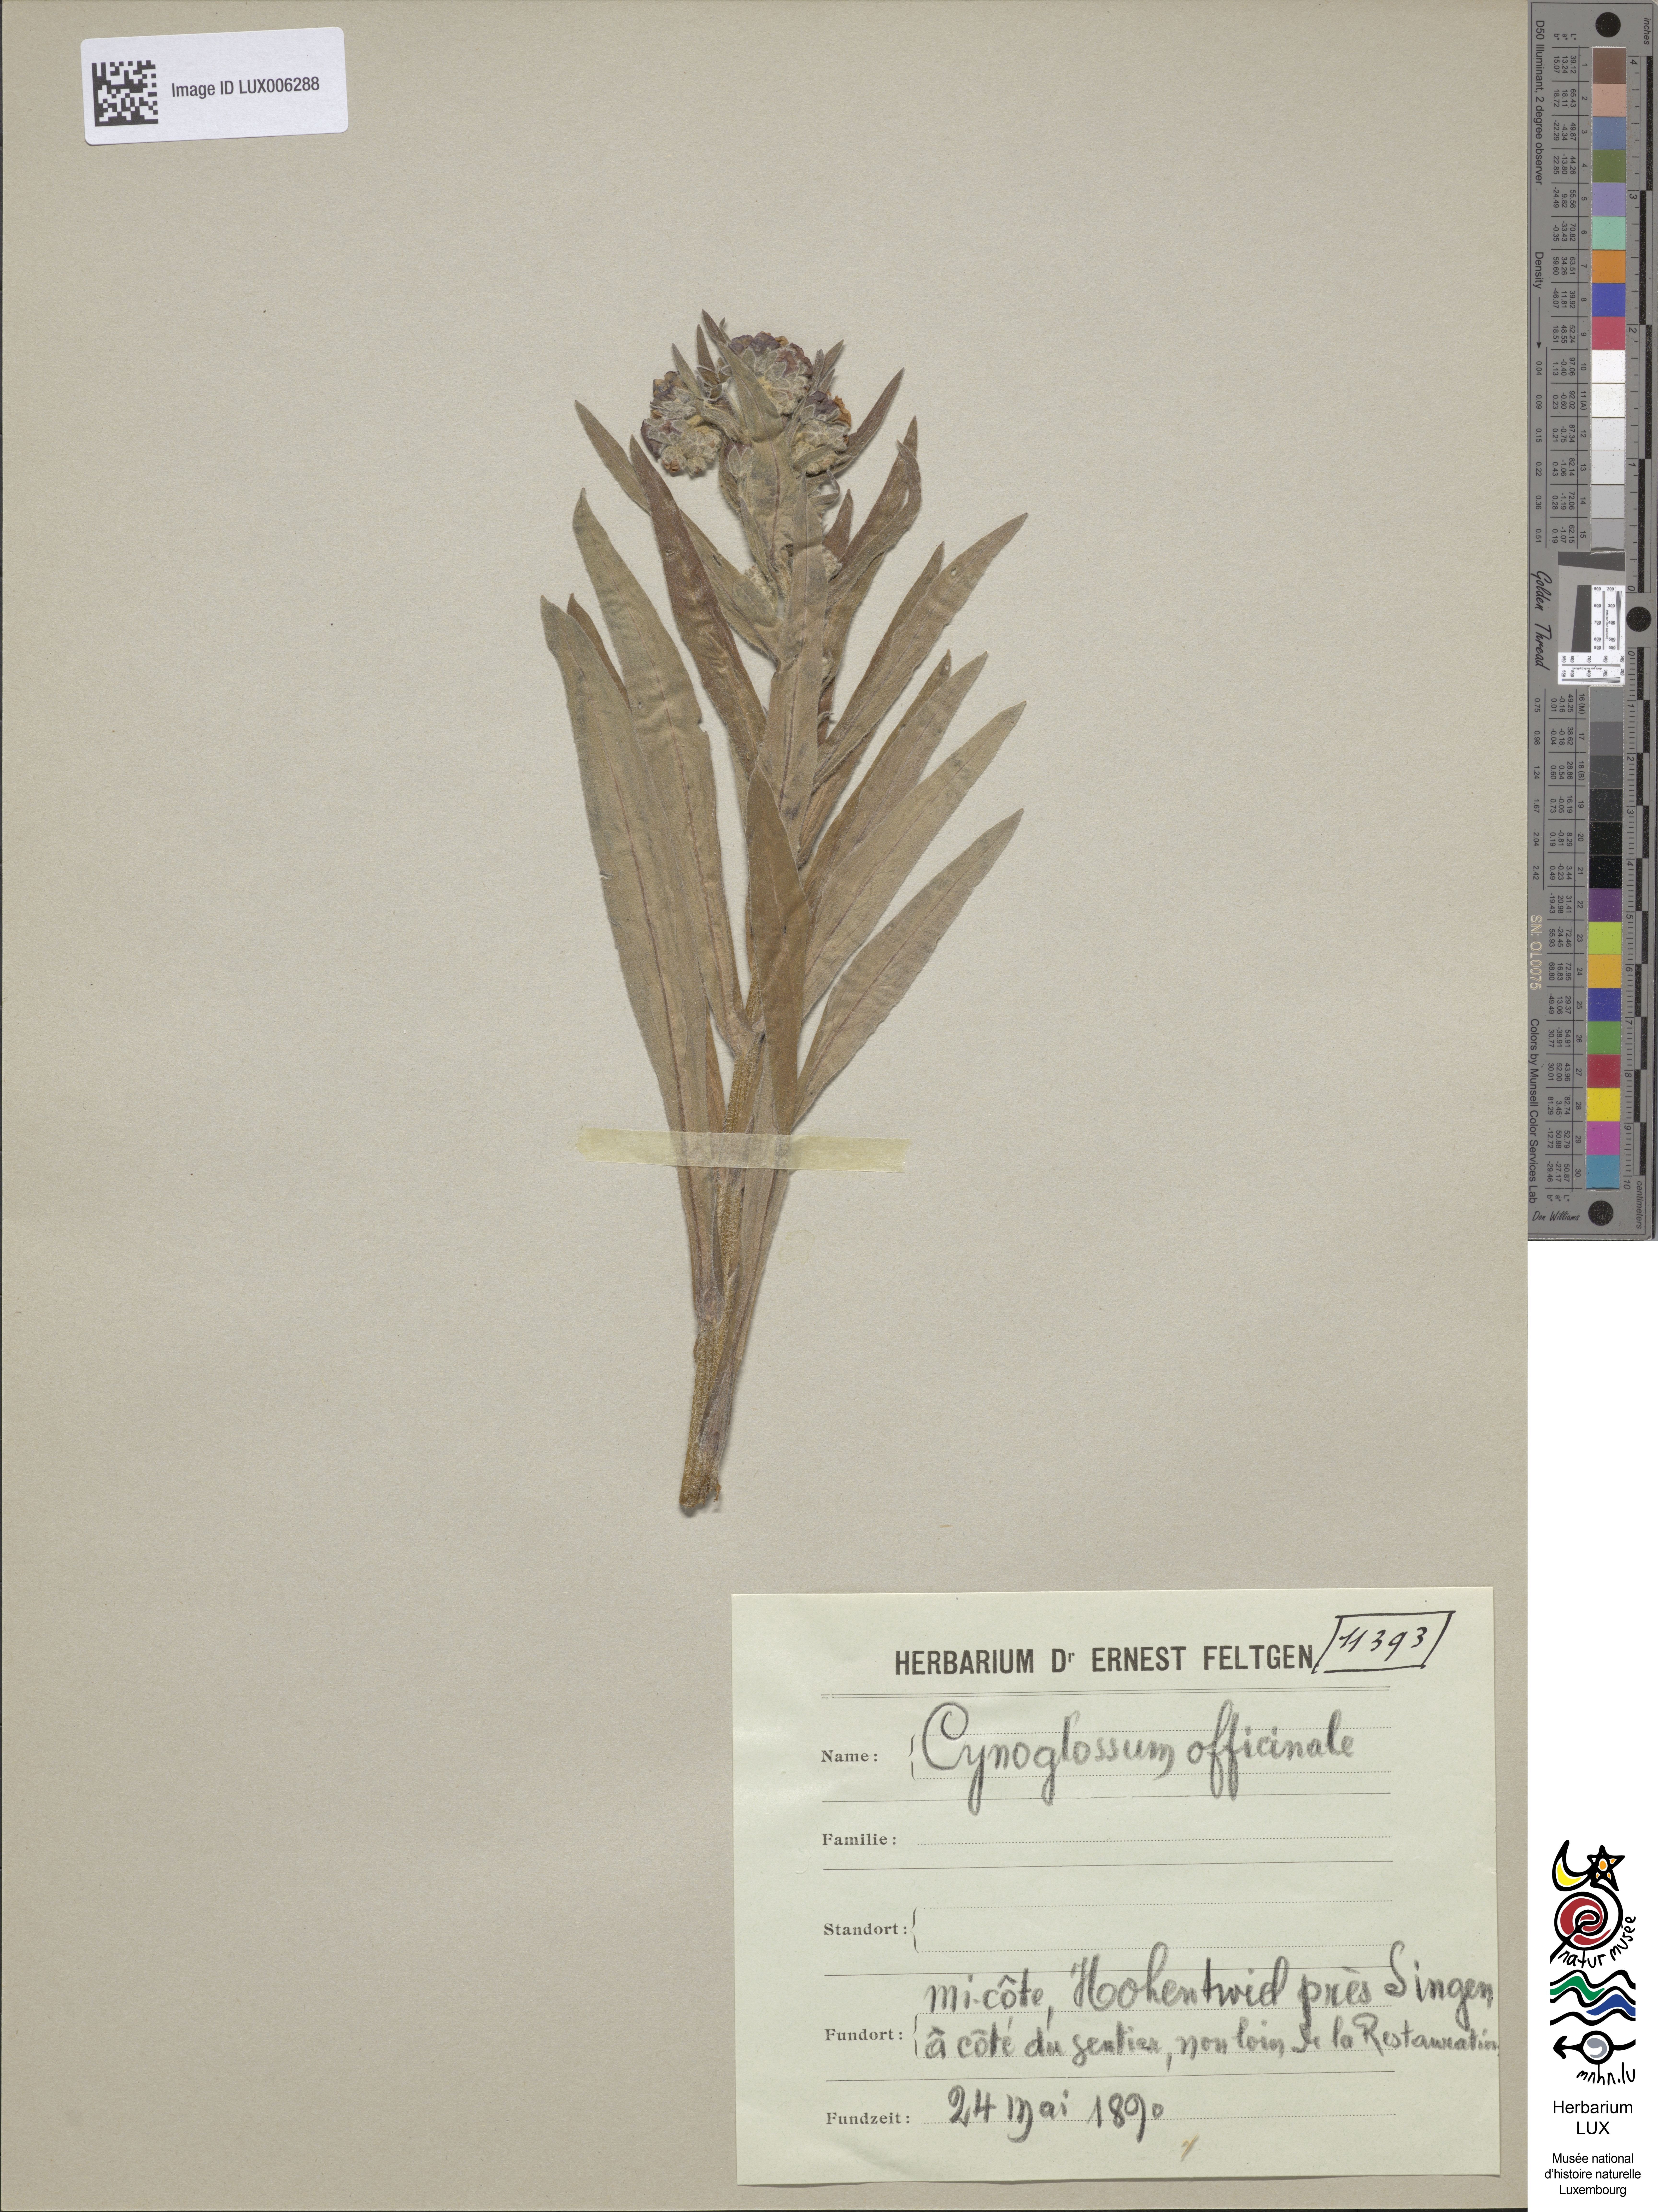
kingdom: Plantae
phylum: Tracheophyta
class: Magnoliopsida
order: Boraginales
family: Boraginaceae
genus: Cynoglossum
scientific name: Cynoglossum officinale
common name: Hound's-tongue
